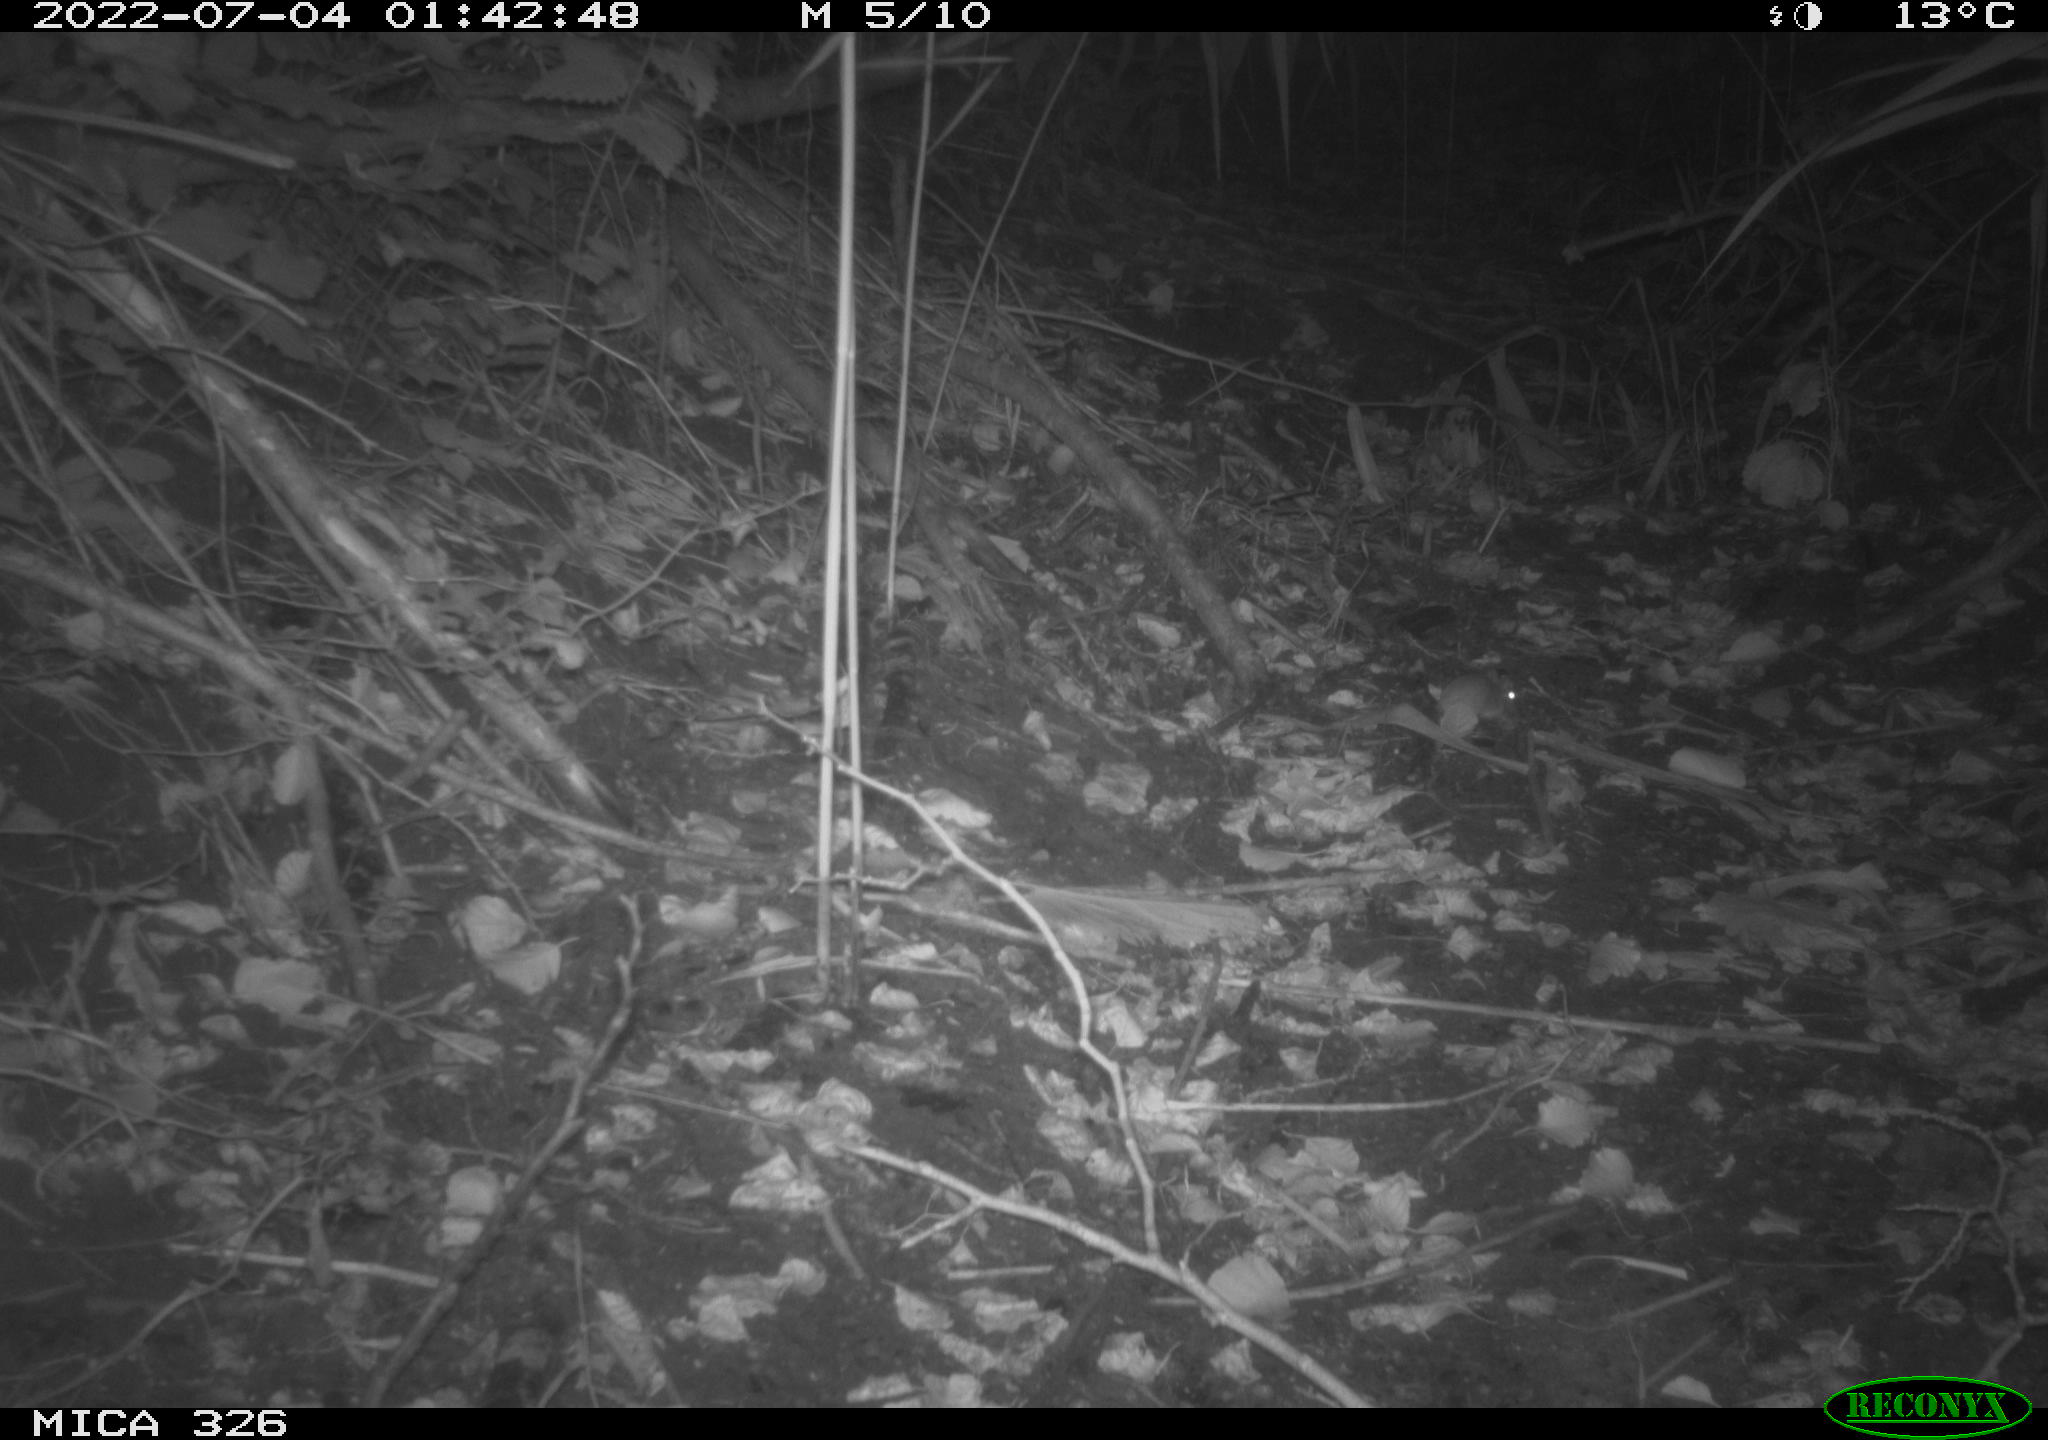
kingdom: Animalia
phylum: Chordata
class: Mammalia
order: Rodentia
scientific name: Rodentia
